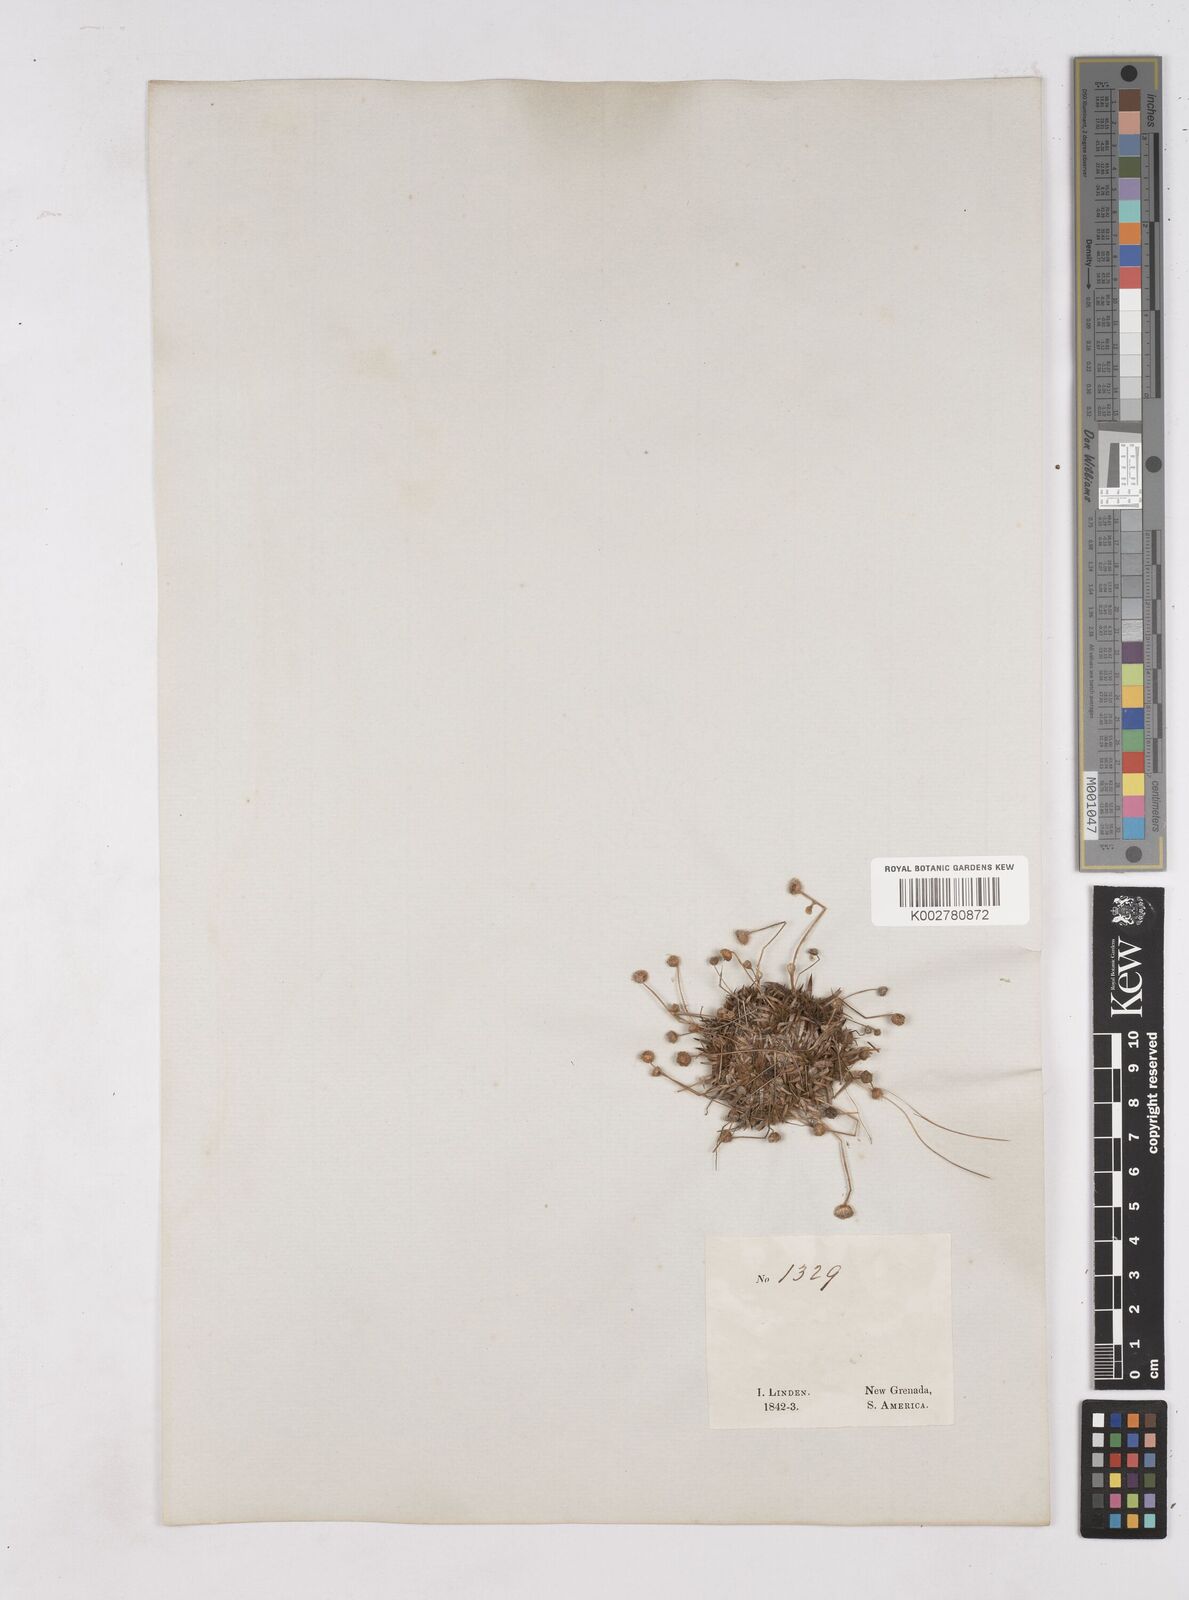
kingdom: Plantae
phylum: Tracheophyta
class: Liliopsida
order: Poales
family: Eriocaulaceae
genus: Paepalanthus
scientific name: Paepalanthus
